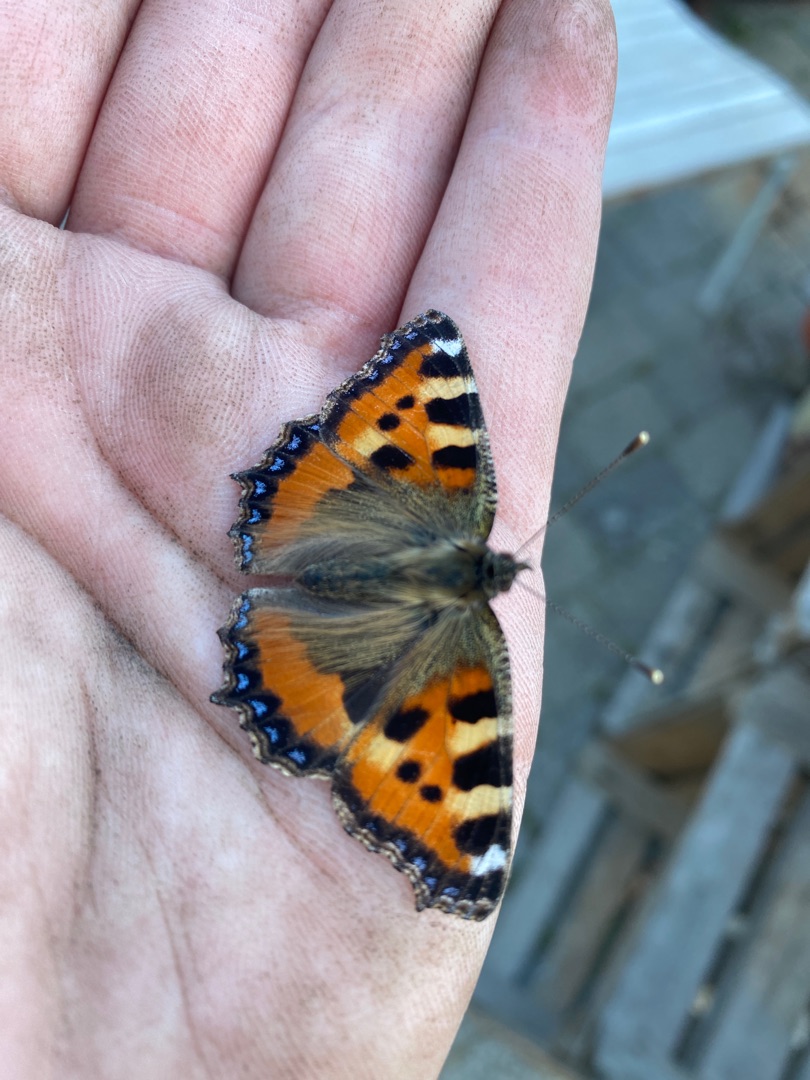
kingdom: Animalia
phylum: Arthropoda
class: Insecta
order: Lepidoptera
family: Nymphalidae
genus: Aglais
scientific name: Aglais urticae
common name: Nældens takvinge
